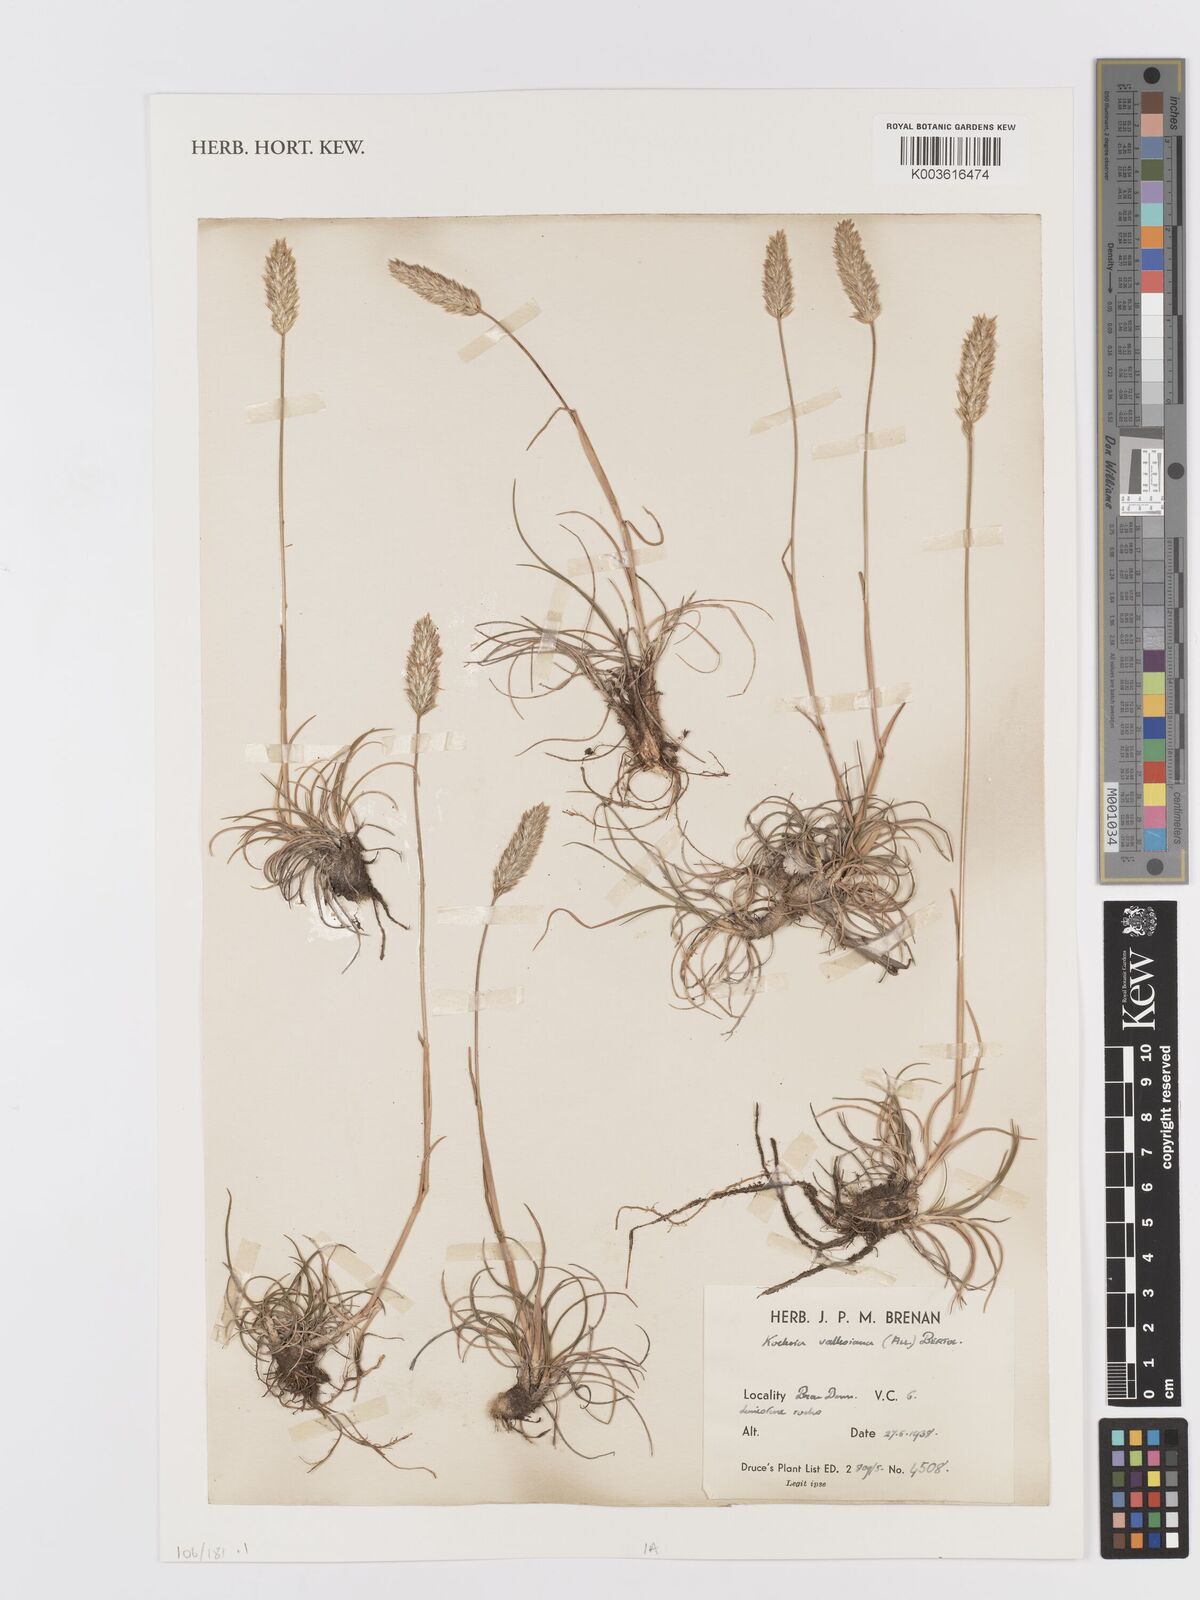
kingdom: Plantae
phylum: Tracheophyta
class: Liliopsida
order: Poales
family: Poaceae
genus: Koeleria
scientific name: Koeleria vallesiana
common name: Somerset hair-grass
